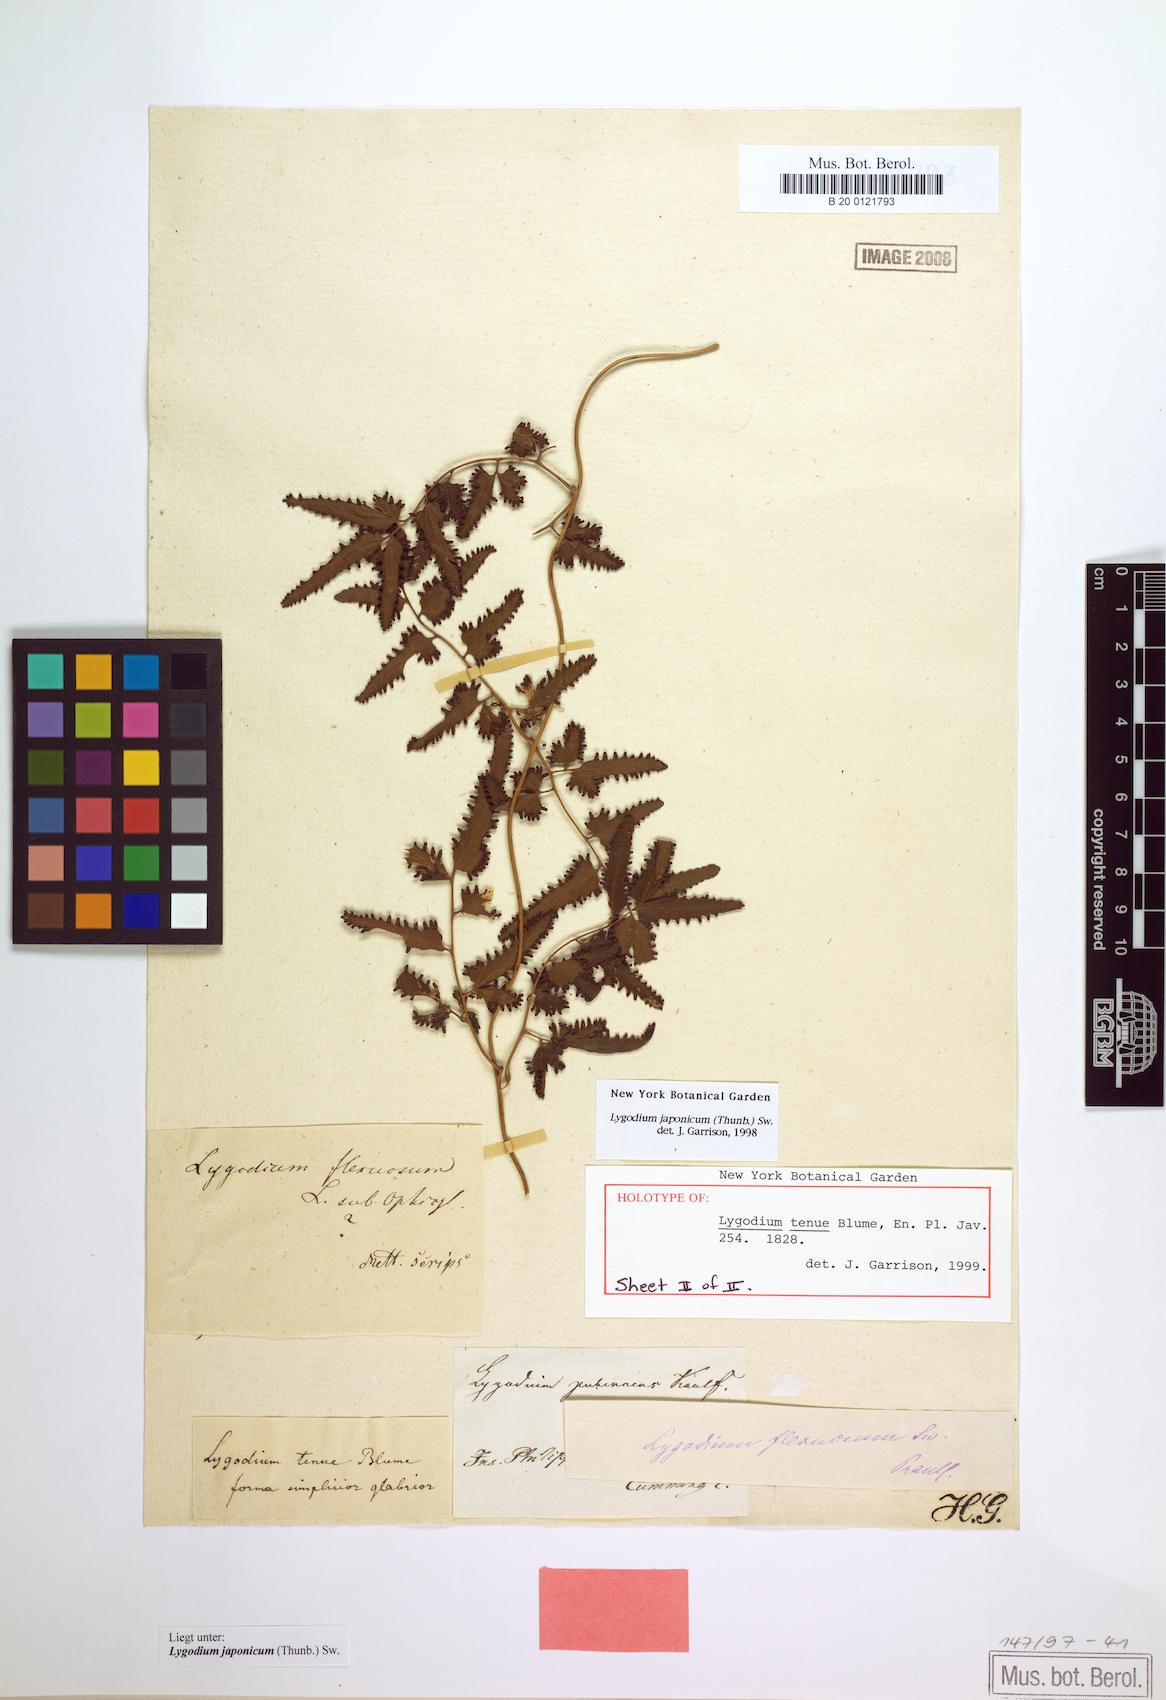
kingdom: Plantae
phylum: Tracheophyta
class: Polypodiopsida
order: Schizaeales
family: Lygodiaceae
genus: Lygodium
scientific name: Lygodium japonicum
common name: Japanese climbing fern
